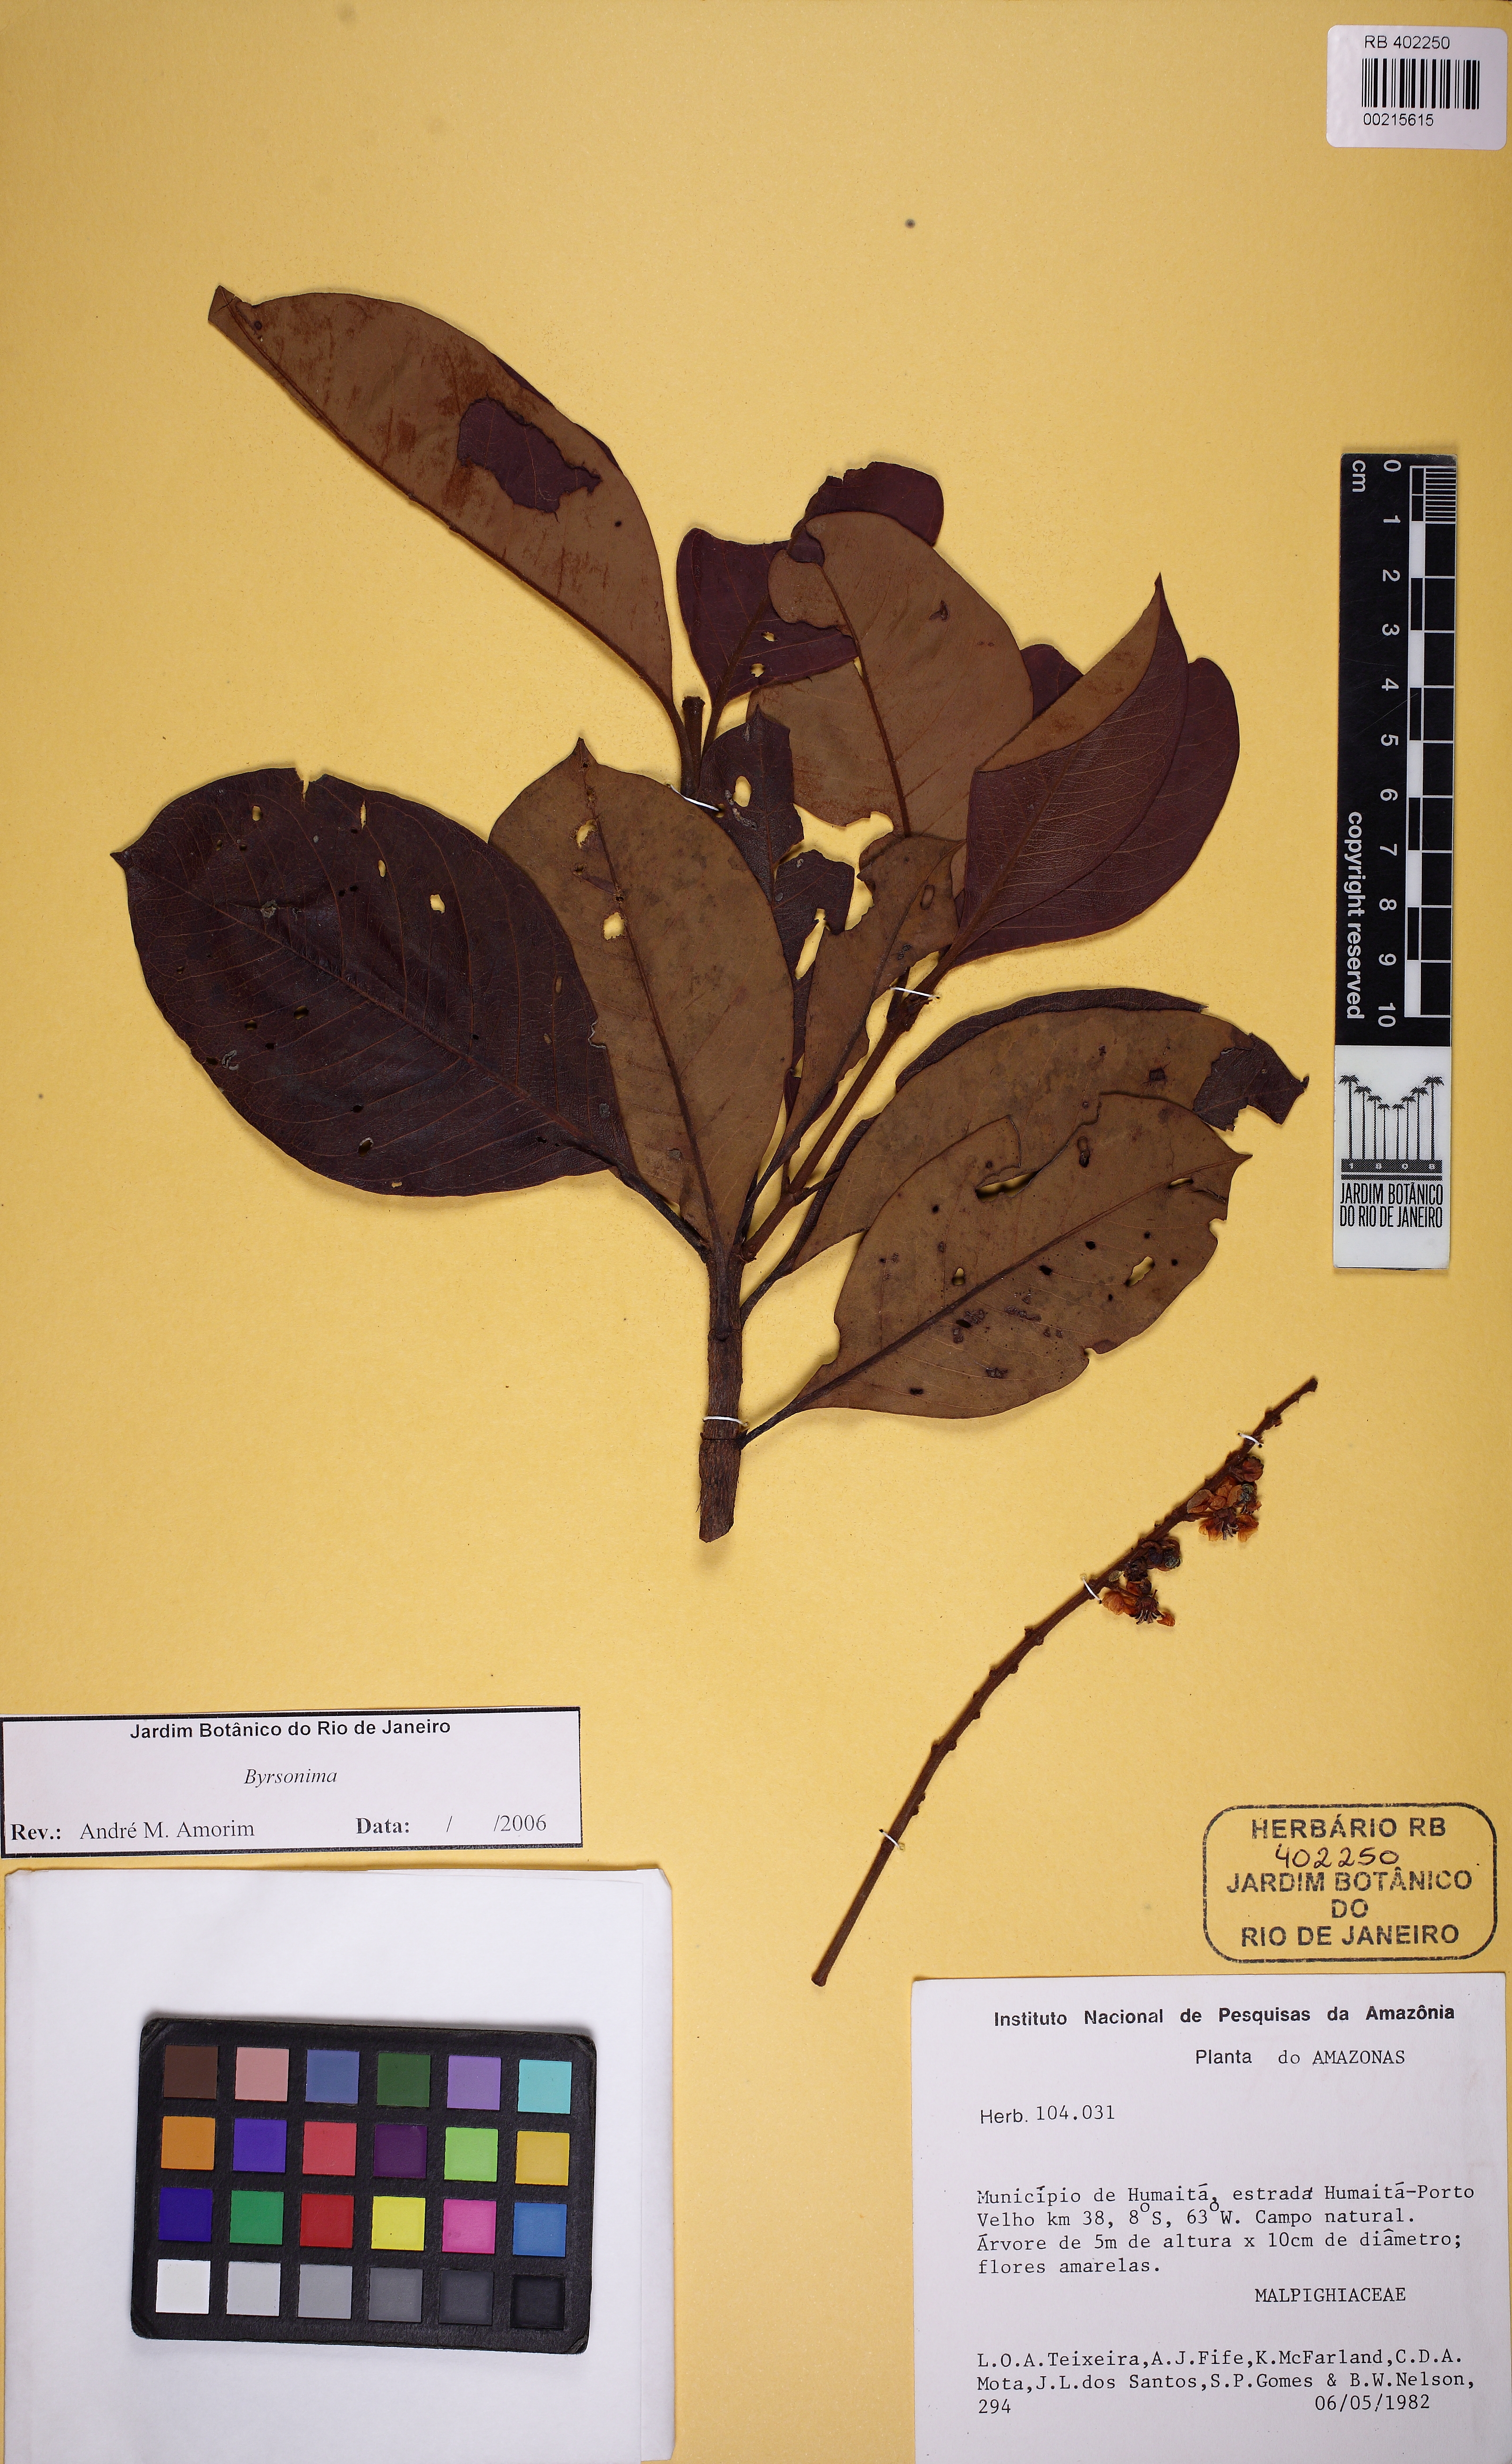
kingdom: Plantae
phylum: Tracheophyta
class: Magnoliopsida
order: Malpighiales
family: Malpighiaceae
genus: Byrsonima
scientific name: Byrsonima crassifolia
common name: Golden spoon
